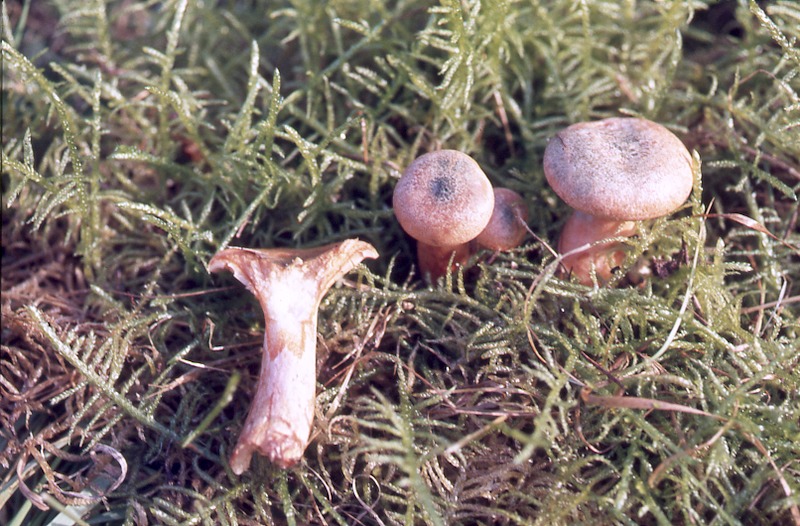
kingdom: Fungi
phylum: Basidiomycota
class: Agaricomycetes
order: Russulales
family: Russulaceae
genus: Lactarius
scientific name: Lactarius deterrimus
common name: False saffron milkcap
